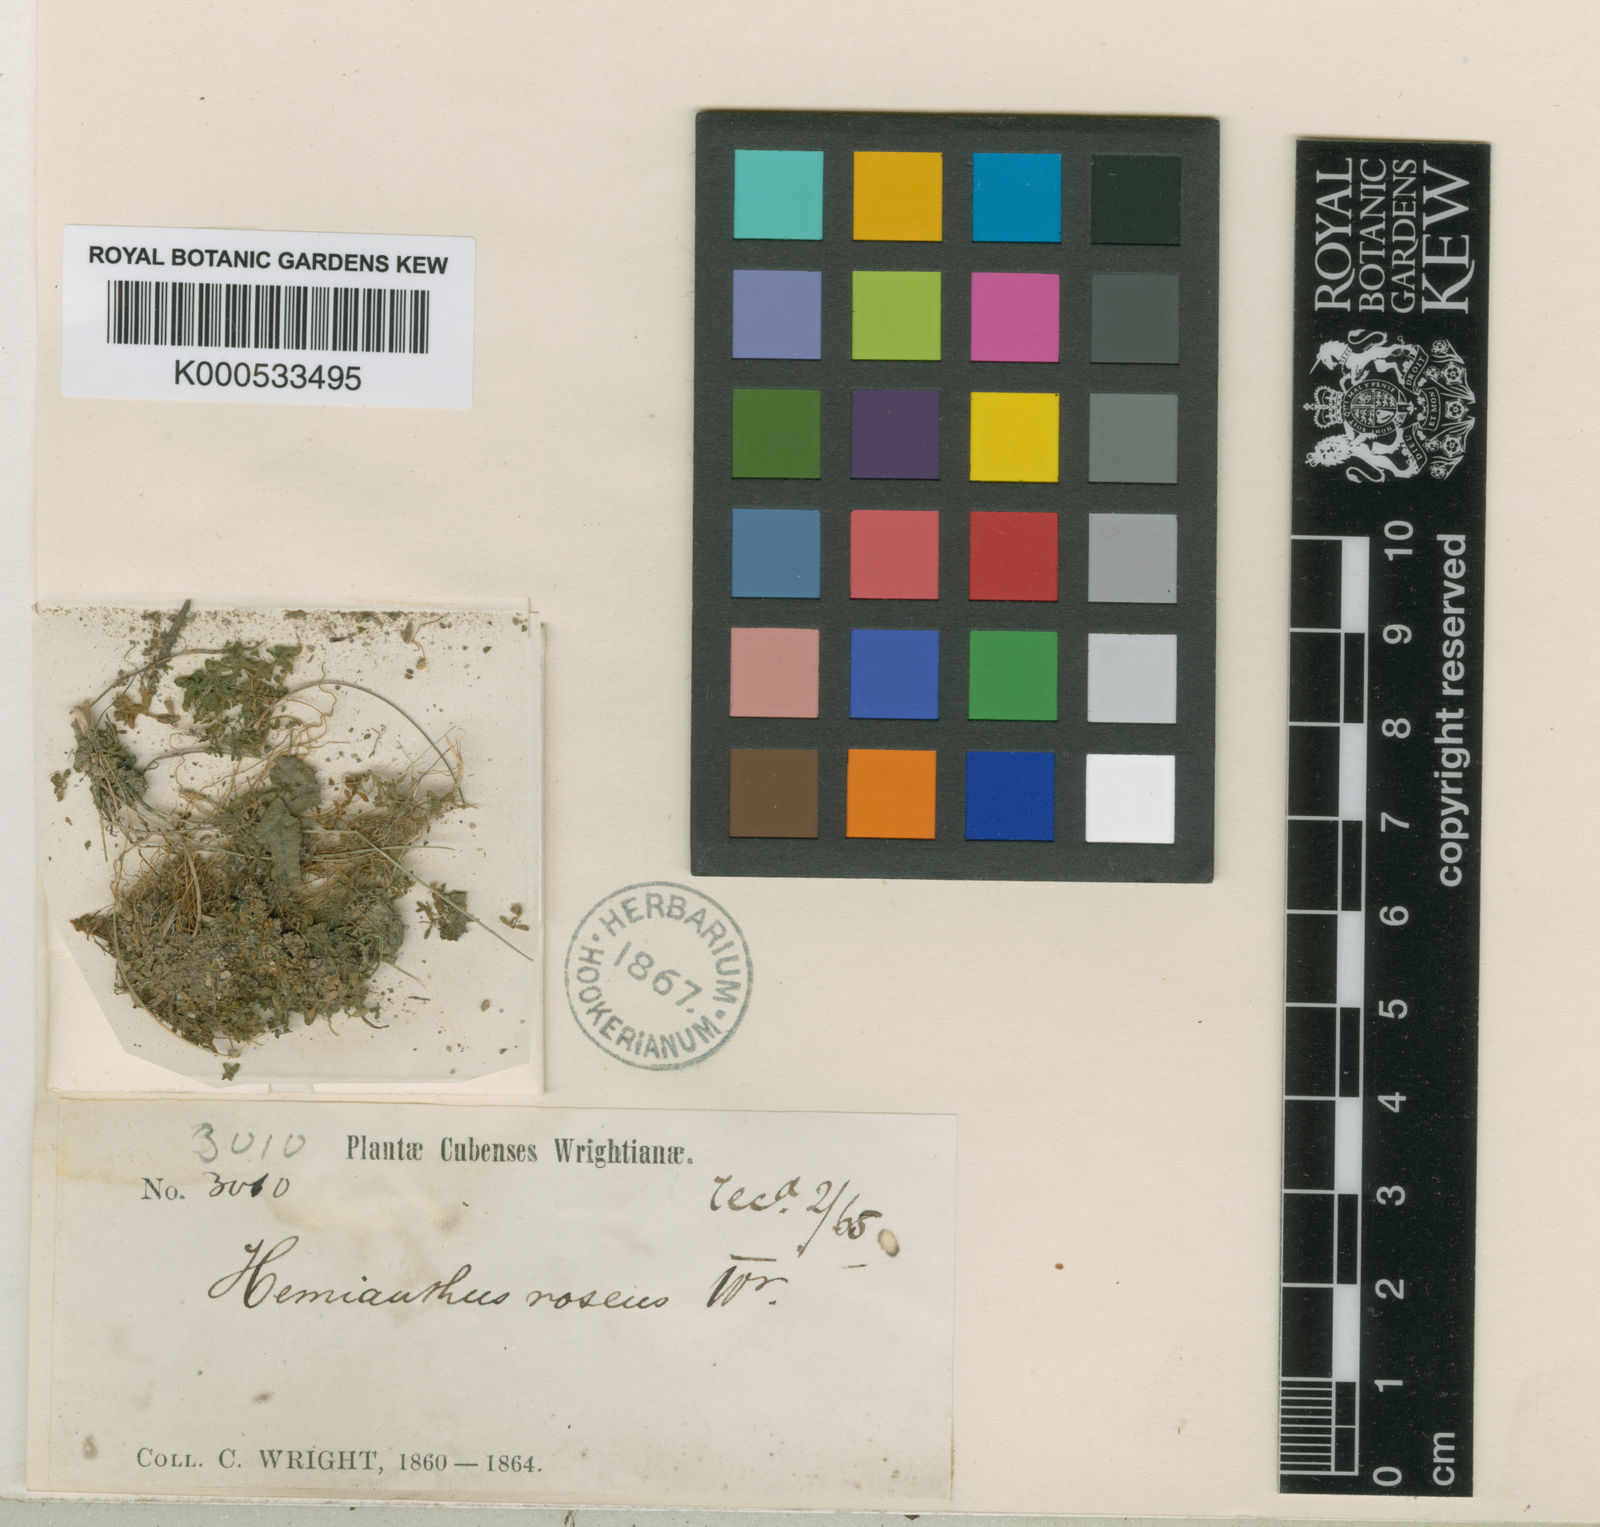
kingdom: Plantae
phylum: Tracheophyta
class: Magnoliopsida
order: Lamiales
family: Linderniaceae
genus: Micranthemum
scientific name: Micranthemum
